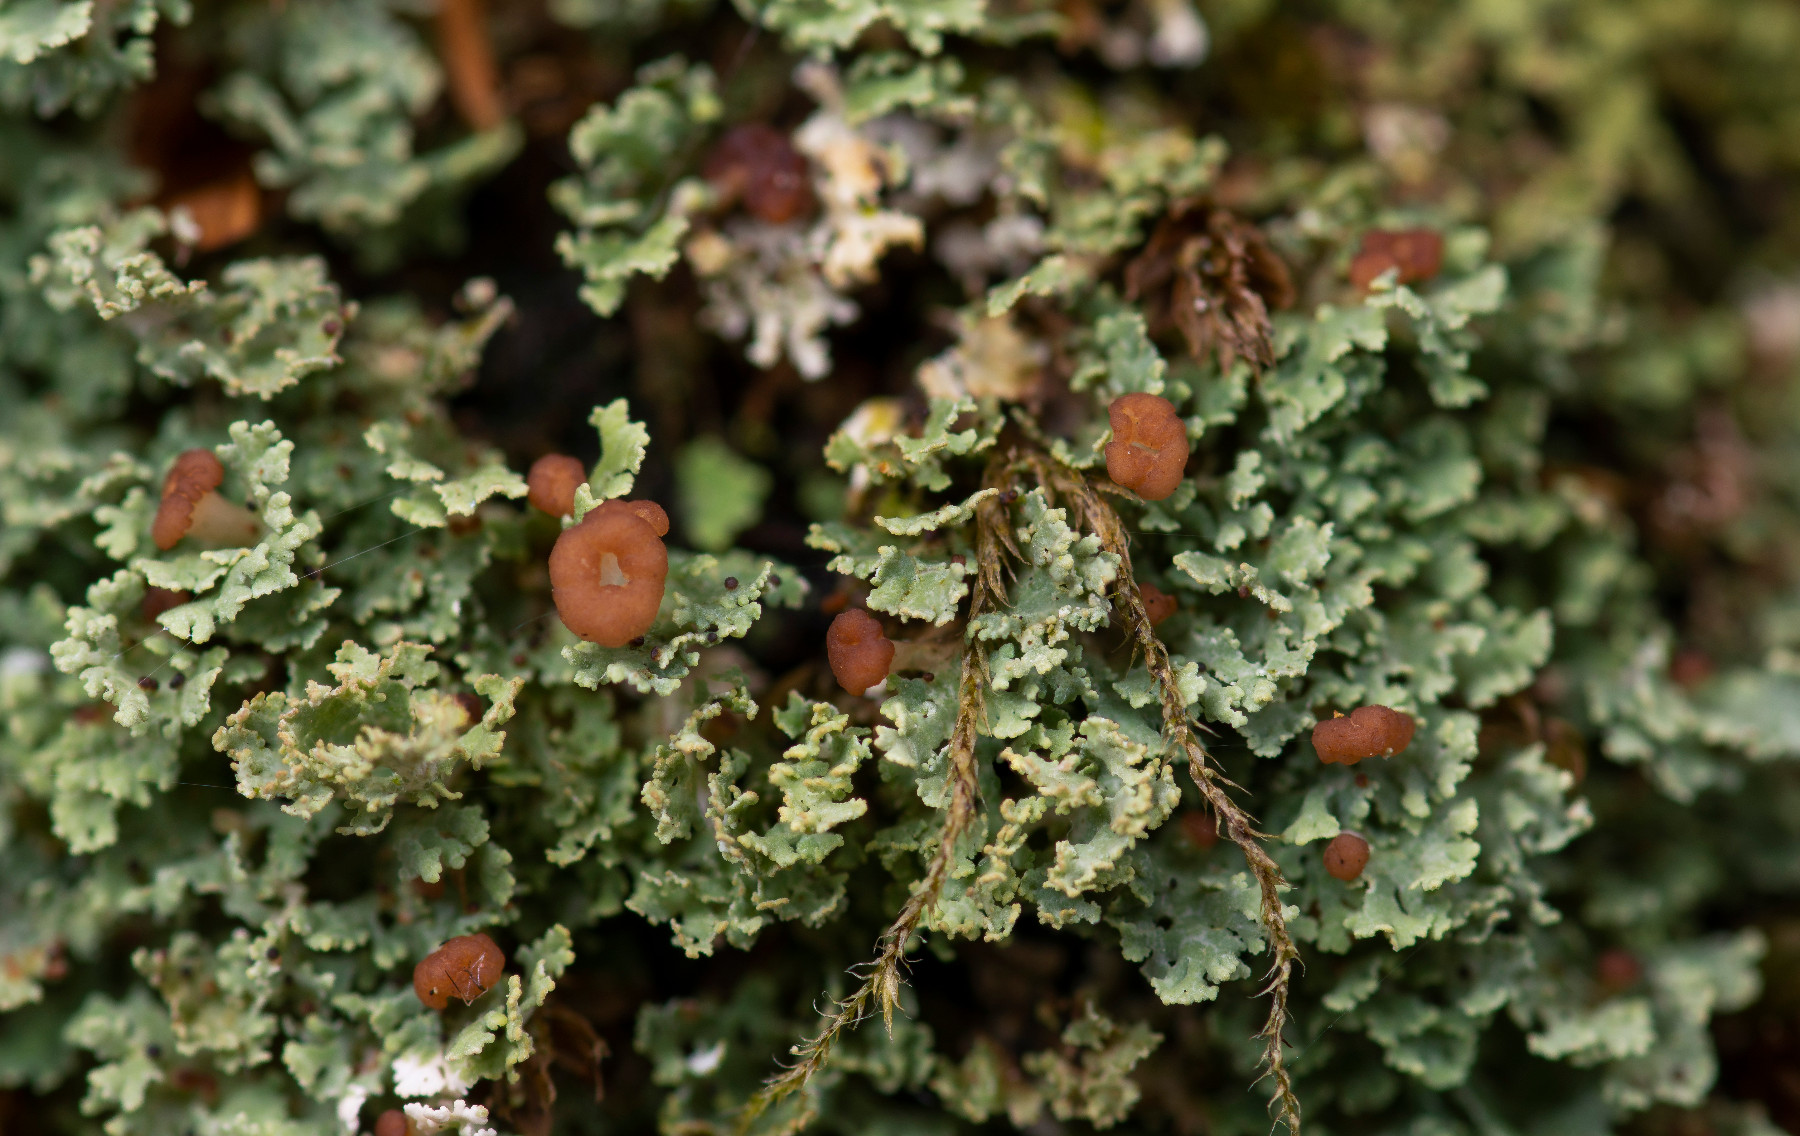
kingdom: Fungi
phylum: Ascomycota
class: Lecanoromycetes
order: Lecanorales
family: Cladoniaceae
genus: Cladonia
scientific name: Cladonia caespiticia
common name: tæppe-bægerlav
